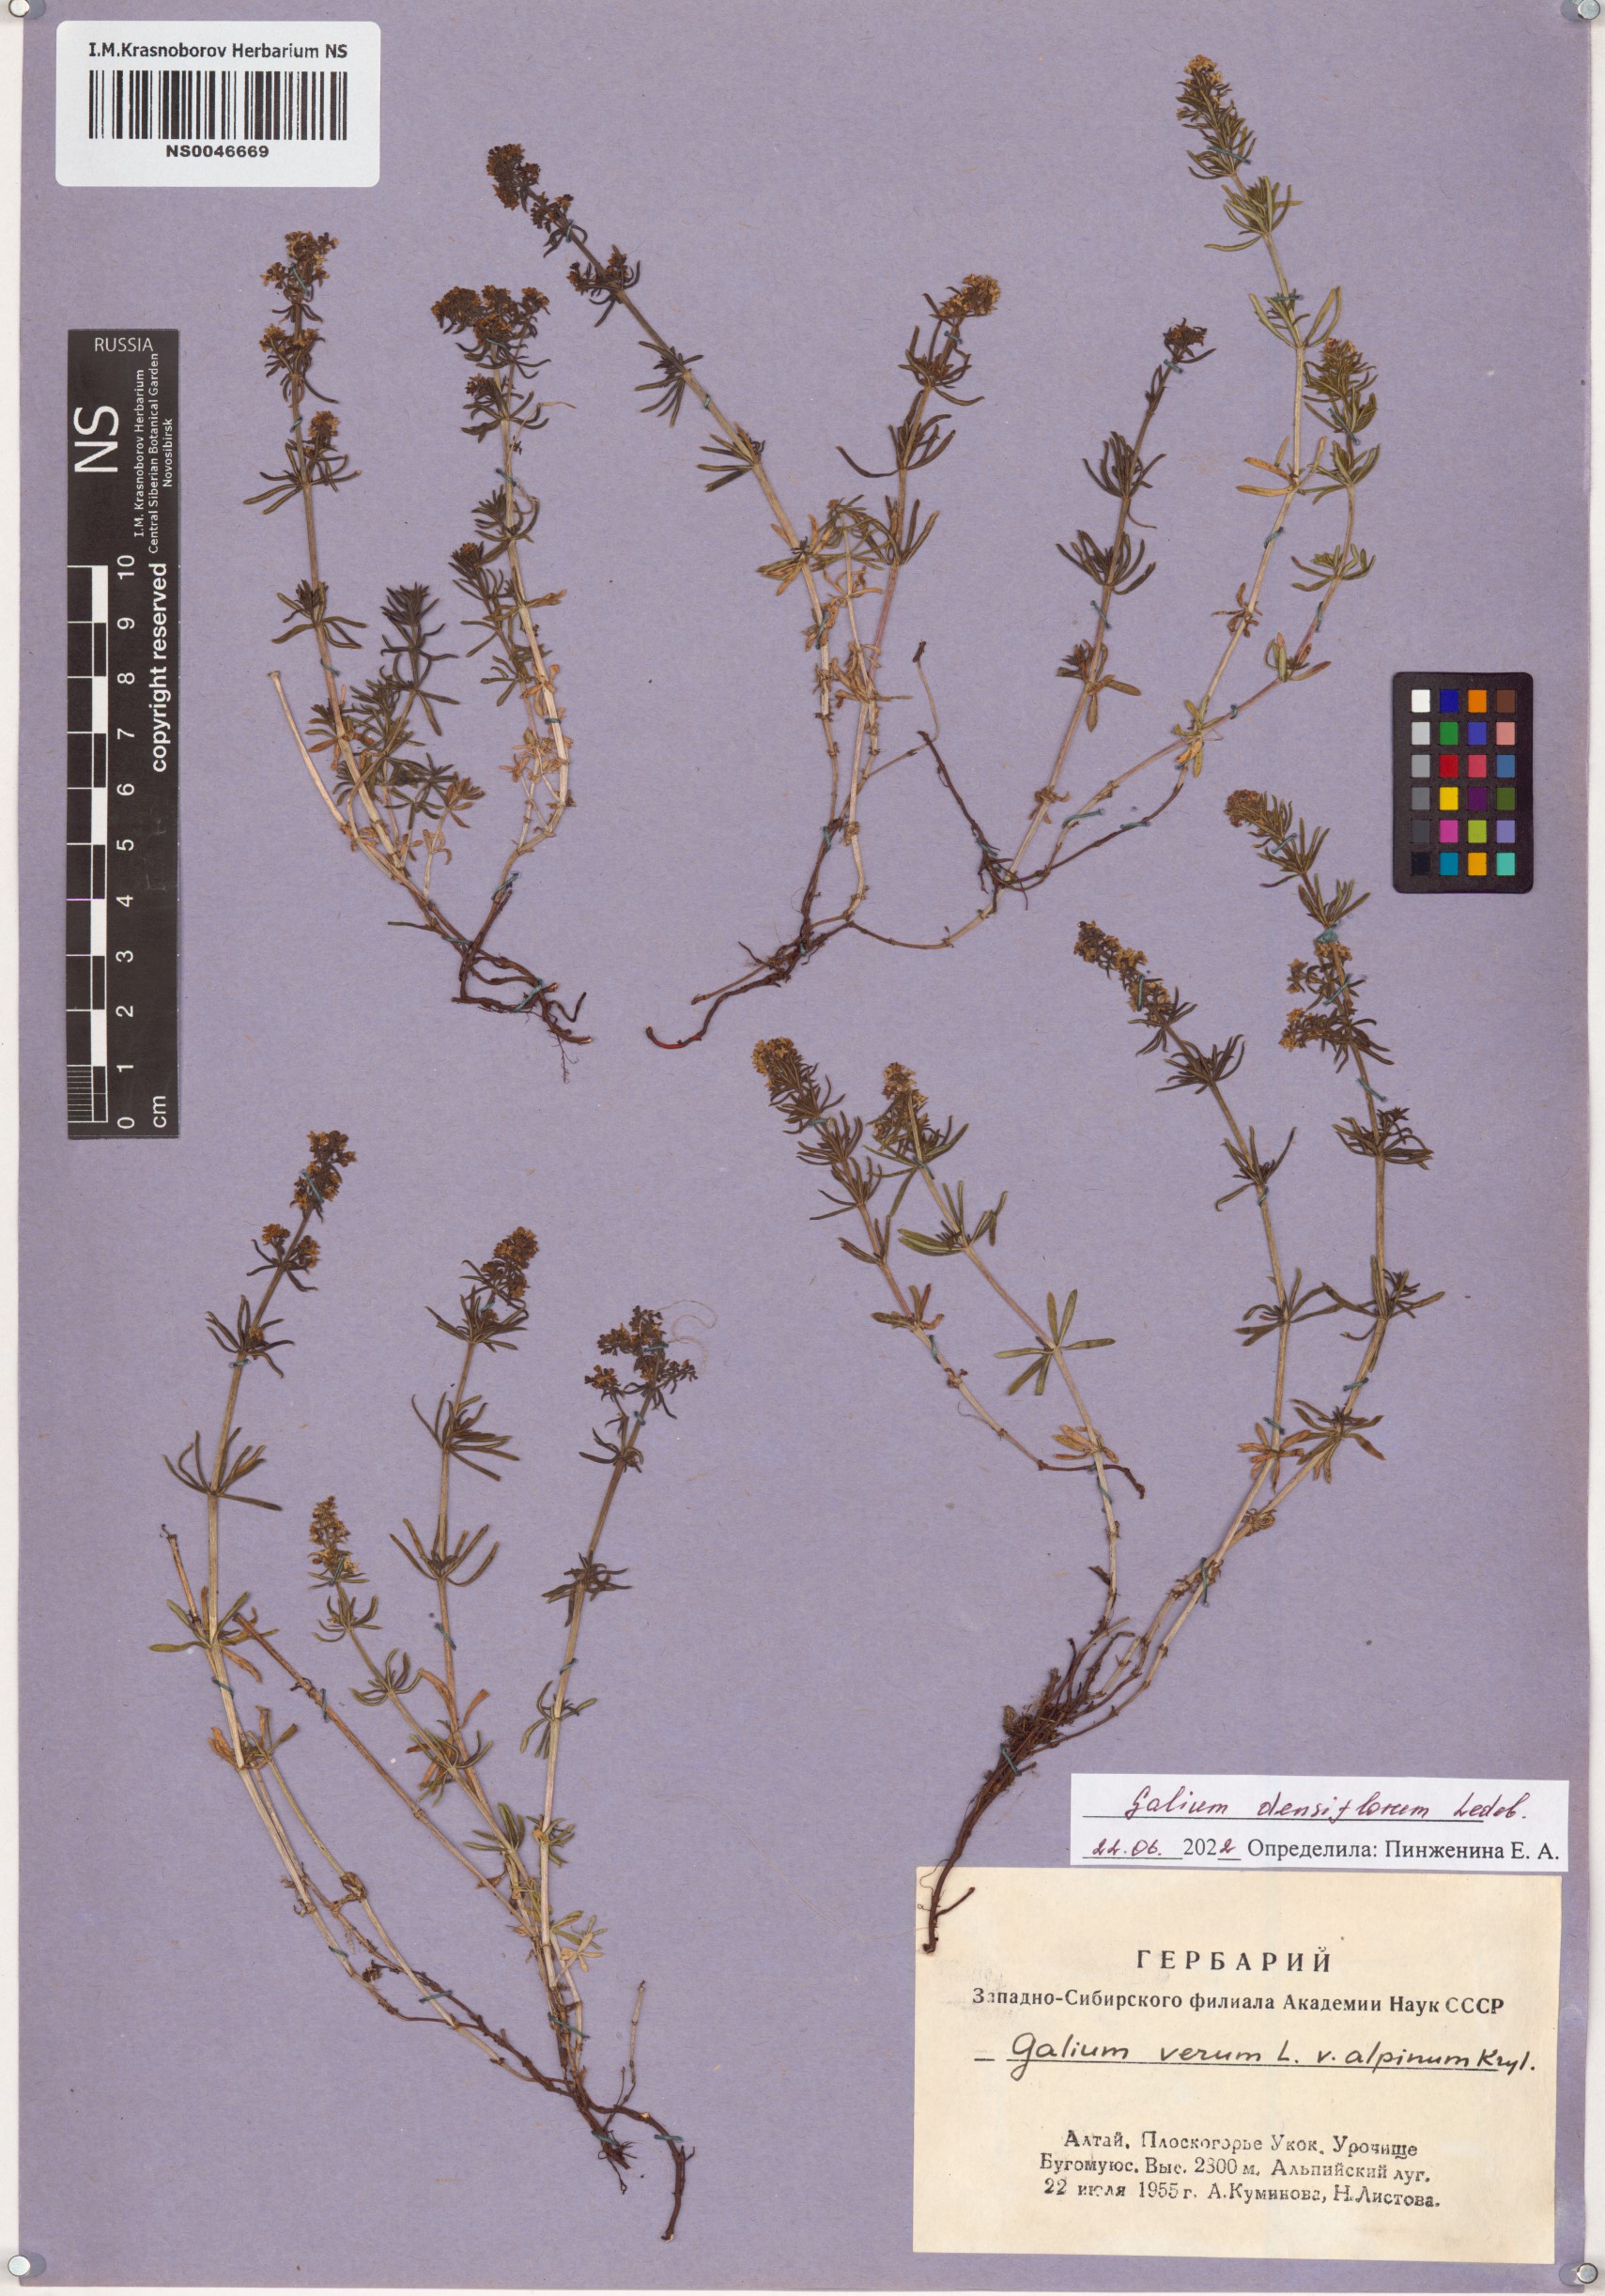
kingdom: Plantae
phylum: Tracheophyta
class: Magnoliopsida
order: Gentianales
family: Rubiaceae
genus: Galium
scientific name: Galium densiflorum
